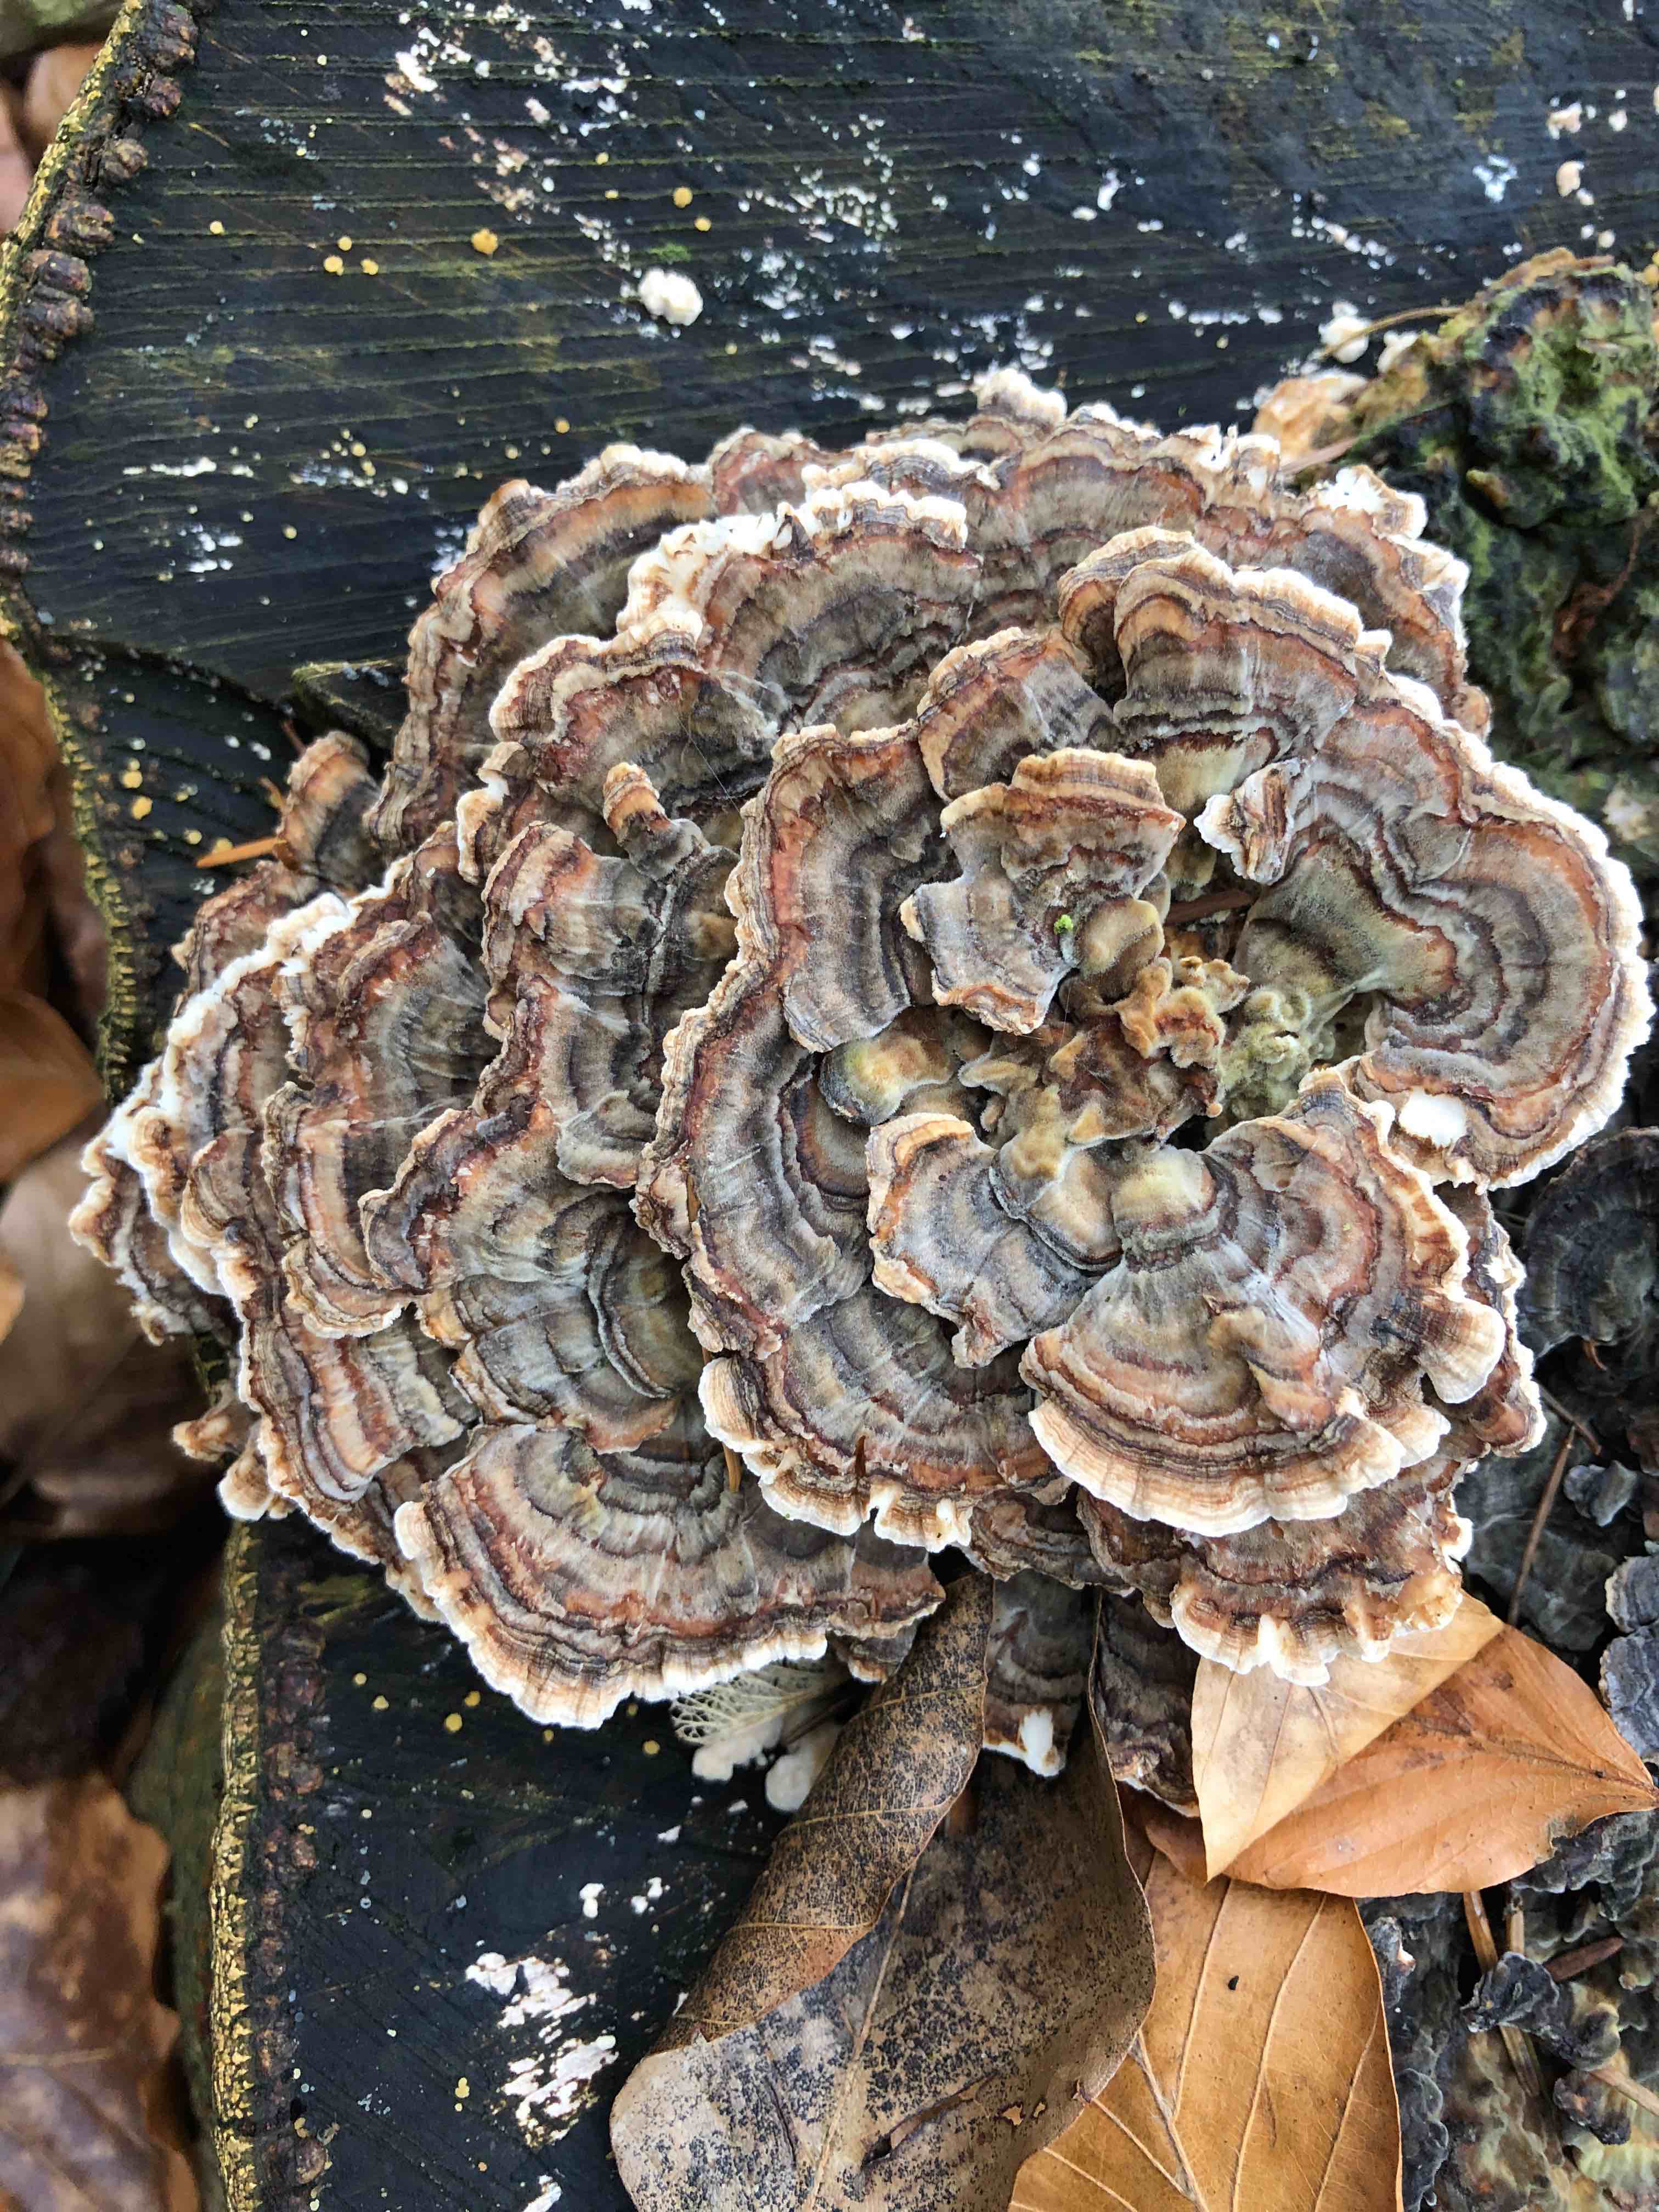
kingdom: Fungi
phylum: Basidiomycota
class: Agaricomycetes
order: Polyporales
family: Polyporaceae
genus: Trametes
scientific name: Trametes versicolor
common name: broget læderporesvamp
